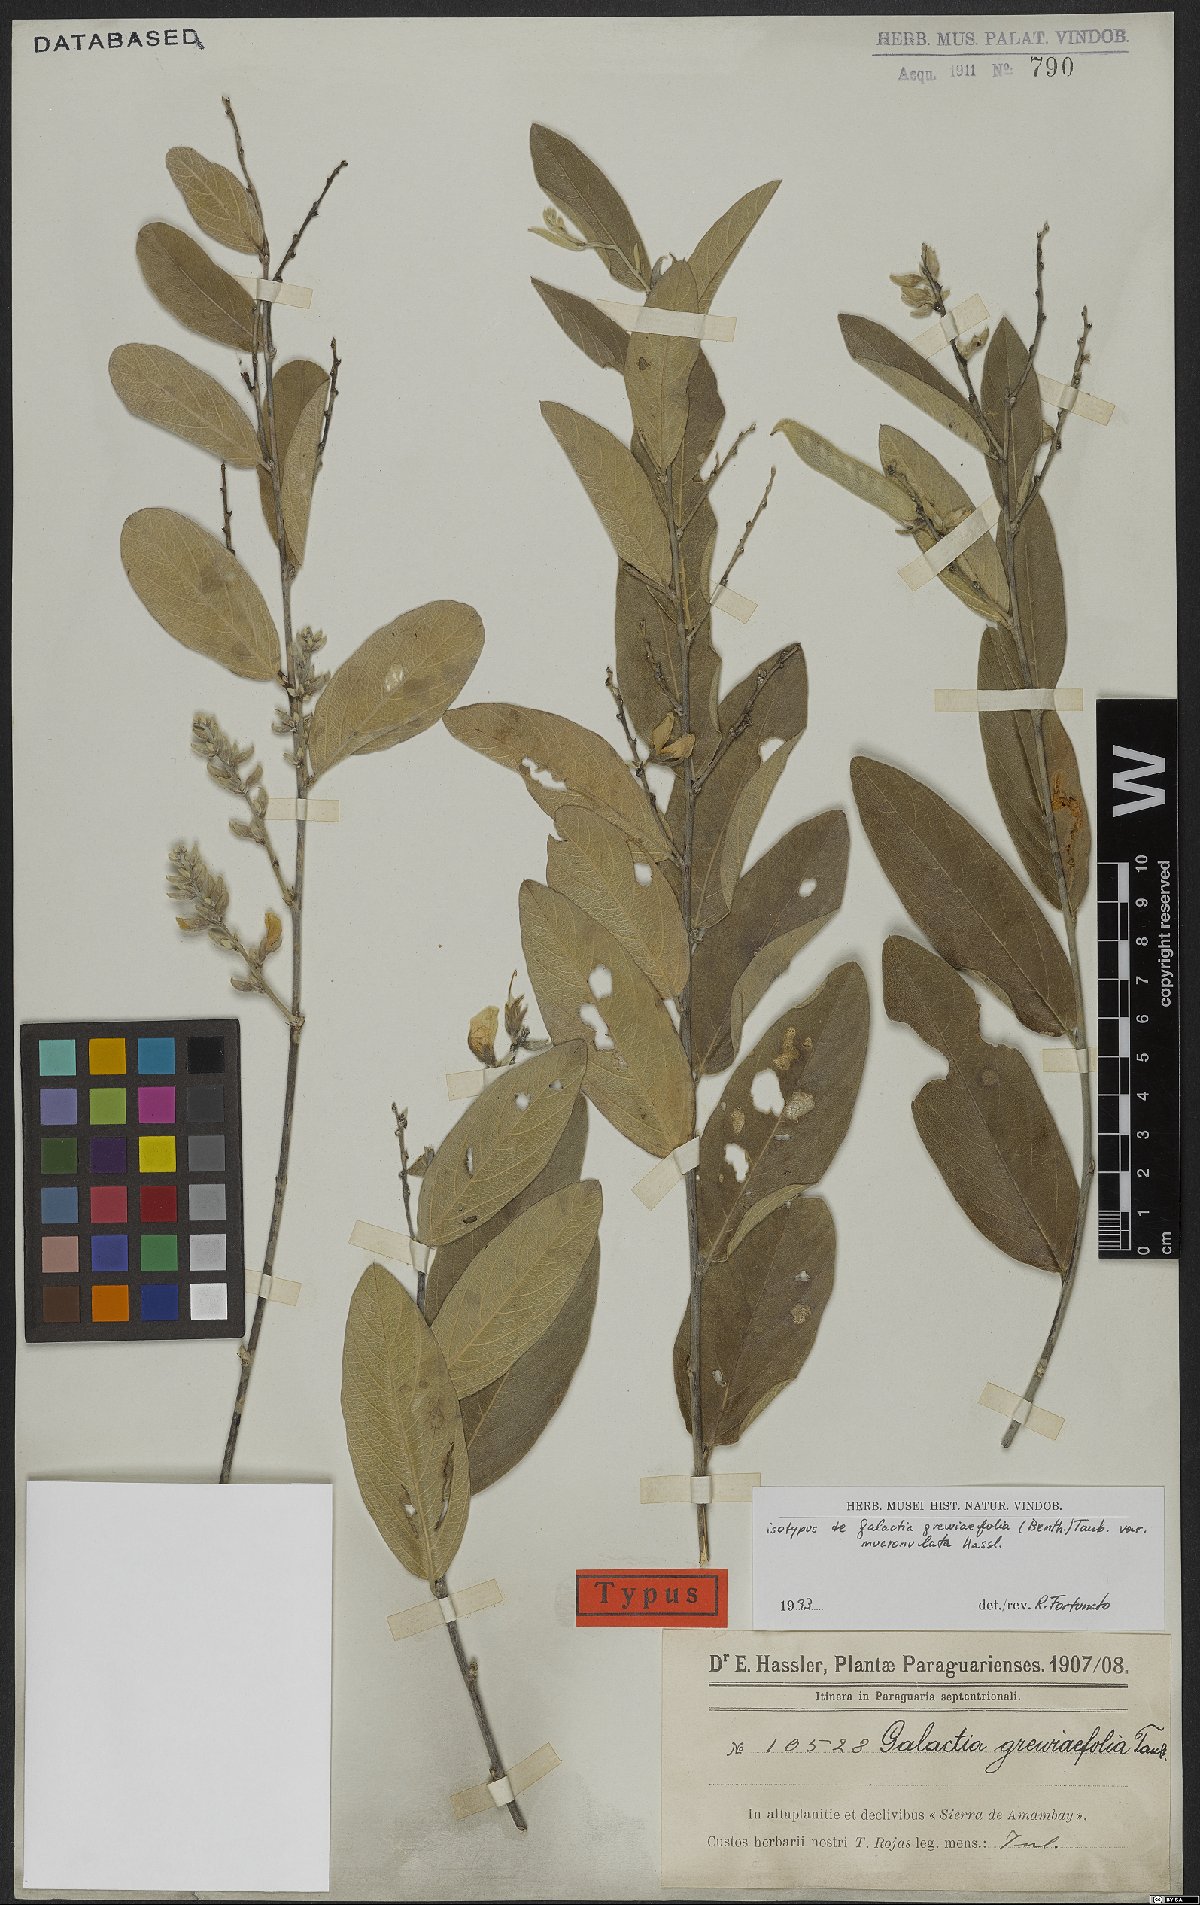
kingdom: Plantae
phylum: Tracheophyta
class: Magnoliopsida
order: Fabales
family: Fabaceae
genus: Cerradicola
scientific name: Cerradicola grewiifolia
